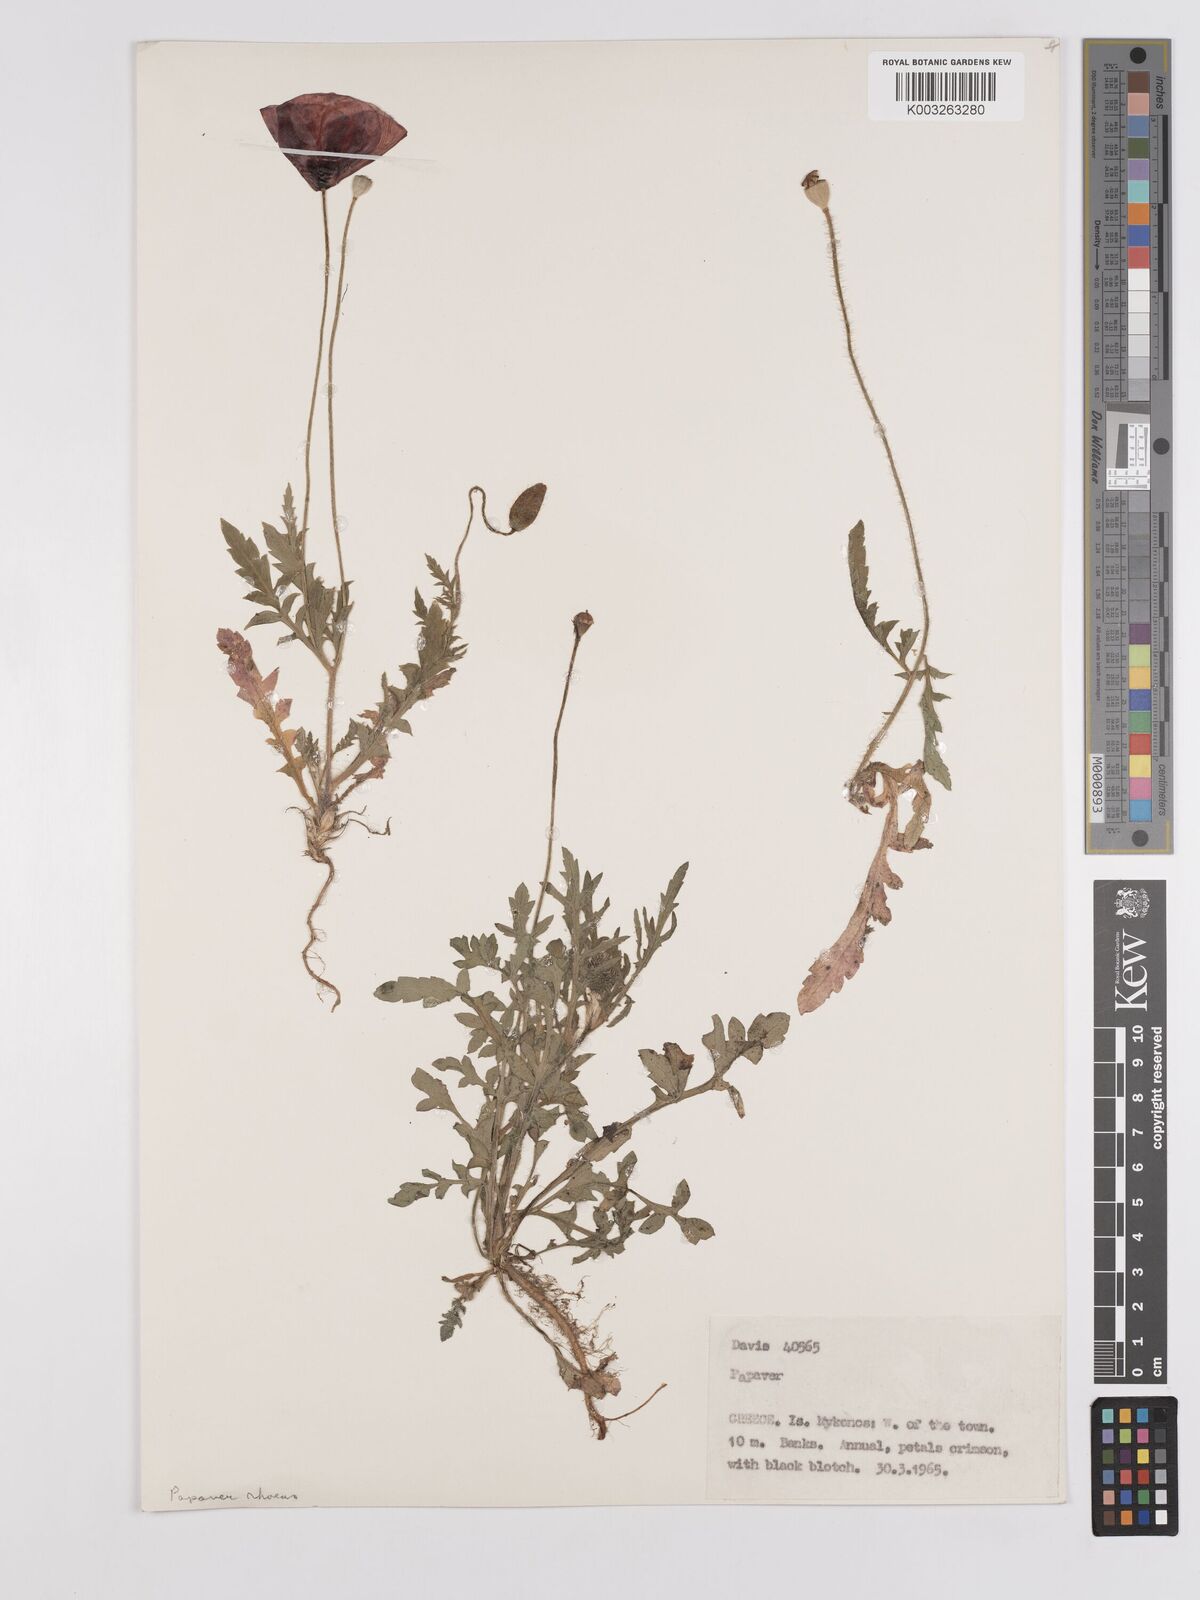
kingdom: Plantae
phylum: Tracheophyta
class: Magnoliopsida
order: Ranunculales
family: Papaveraceae
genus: Papaver
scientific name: Papaver
